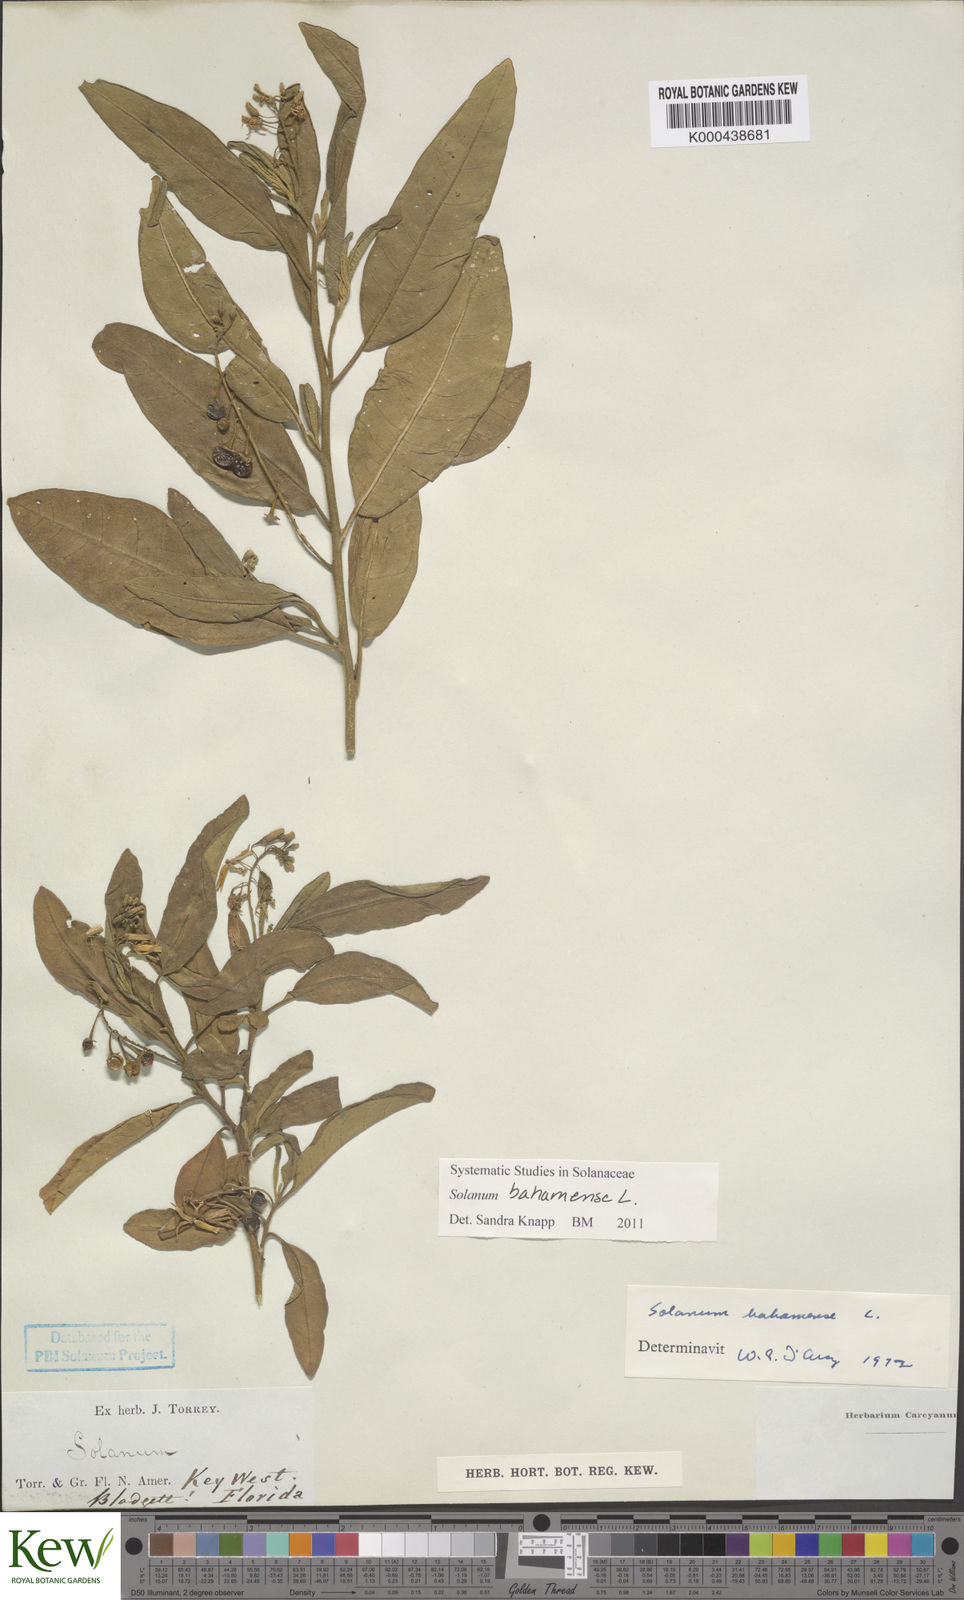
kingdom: Plantae
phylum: Tracheophyta
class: Magnoliopsida
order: Solanales
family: Solanaceae
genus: Solanum
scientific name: Solanum bahamense
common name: Canker-berry
